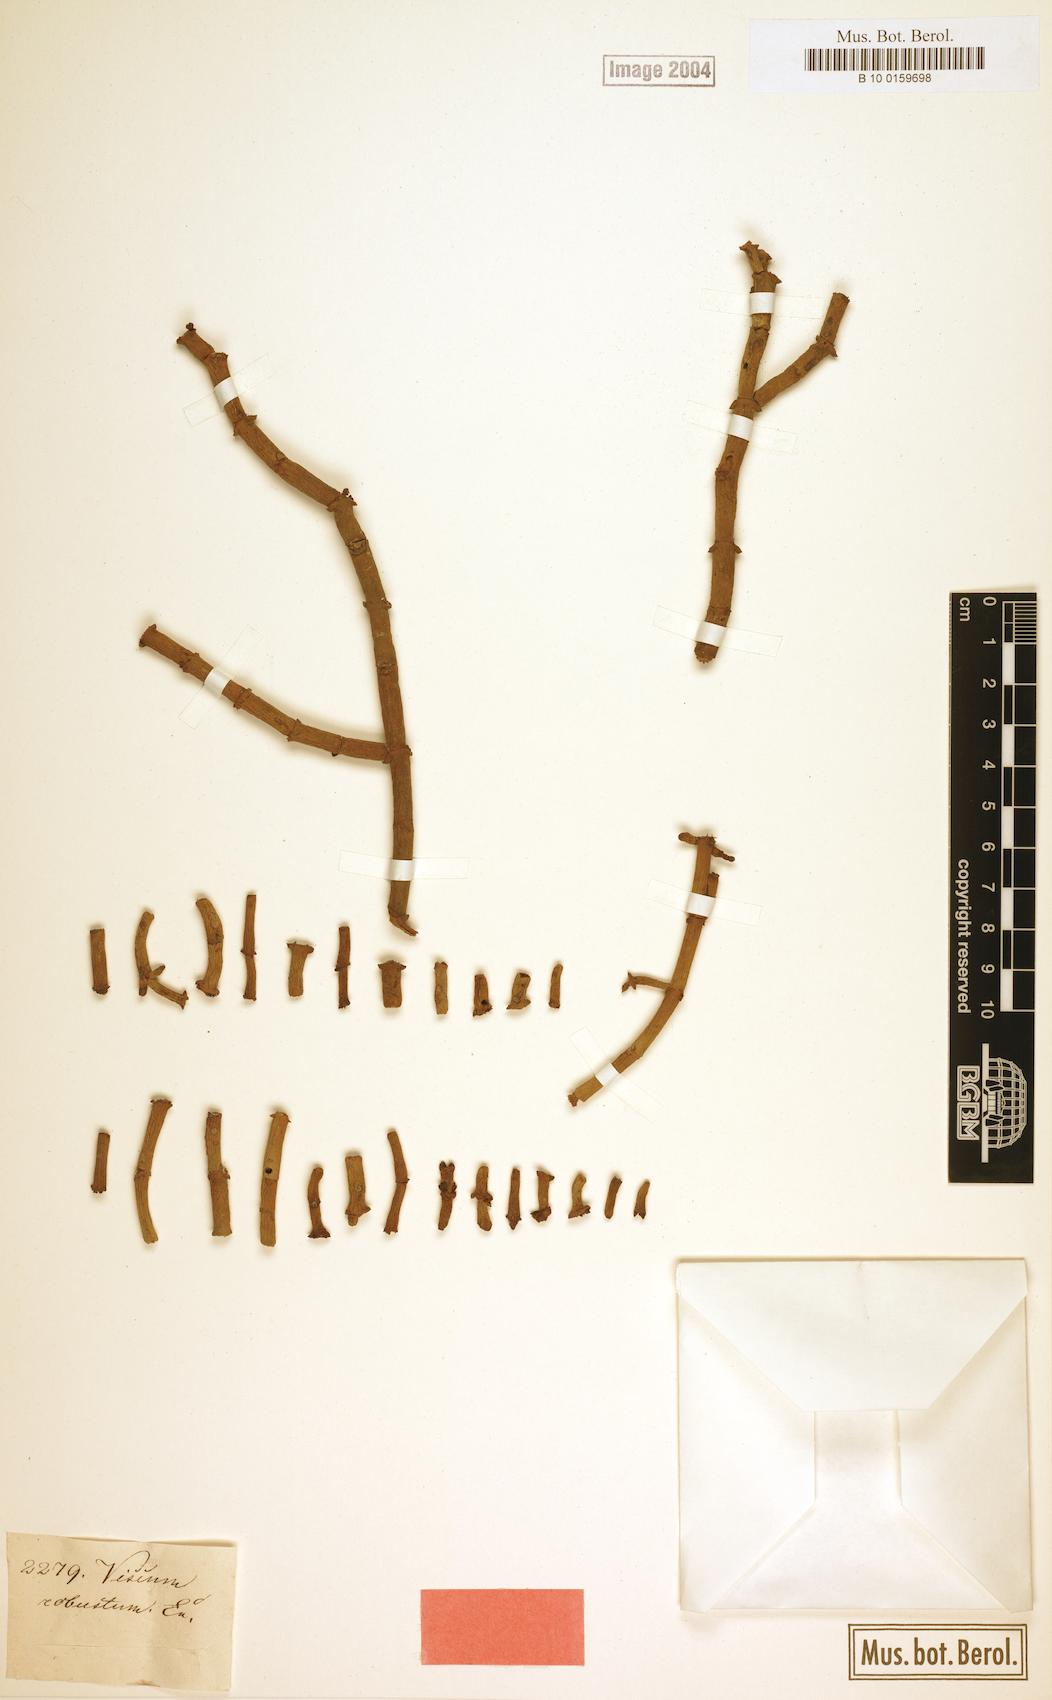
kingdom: Plantae
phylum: Tracheophyta
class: Magnoliopsida
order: Santalales
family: Viscaceae
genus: Viscum
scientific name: Viscum capense
